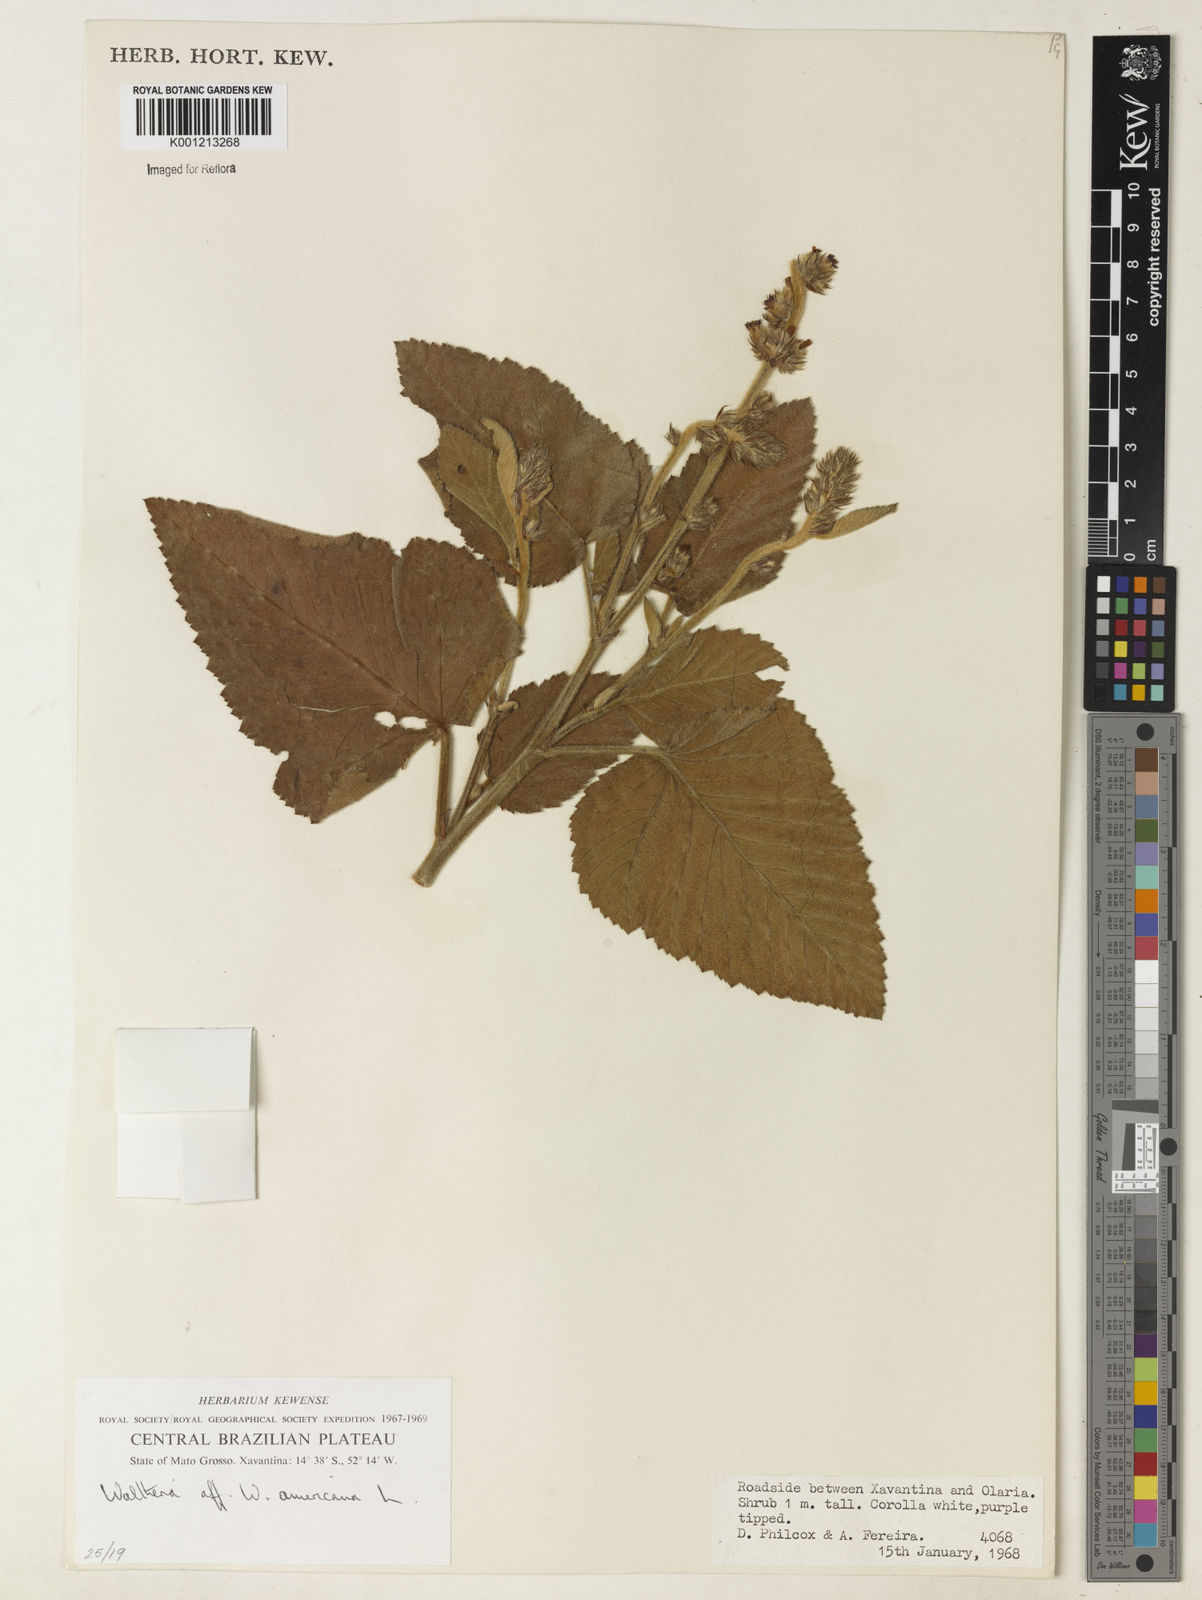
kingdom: Plantae
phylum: Tracheophyta
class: Magnoliopsida
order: Malvales
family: Malvaceae
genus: Waltheria
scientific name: Waltheria indica
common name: Leather-coat
